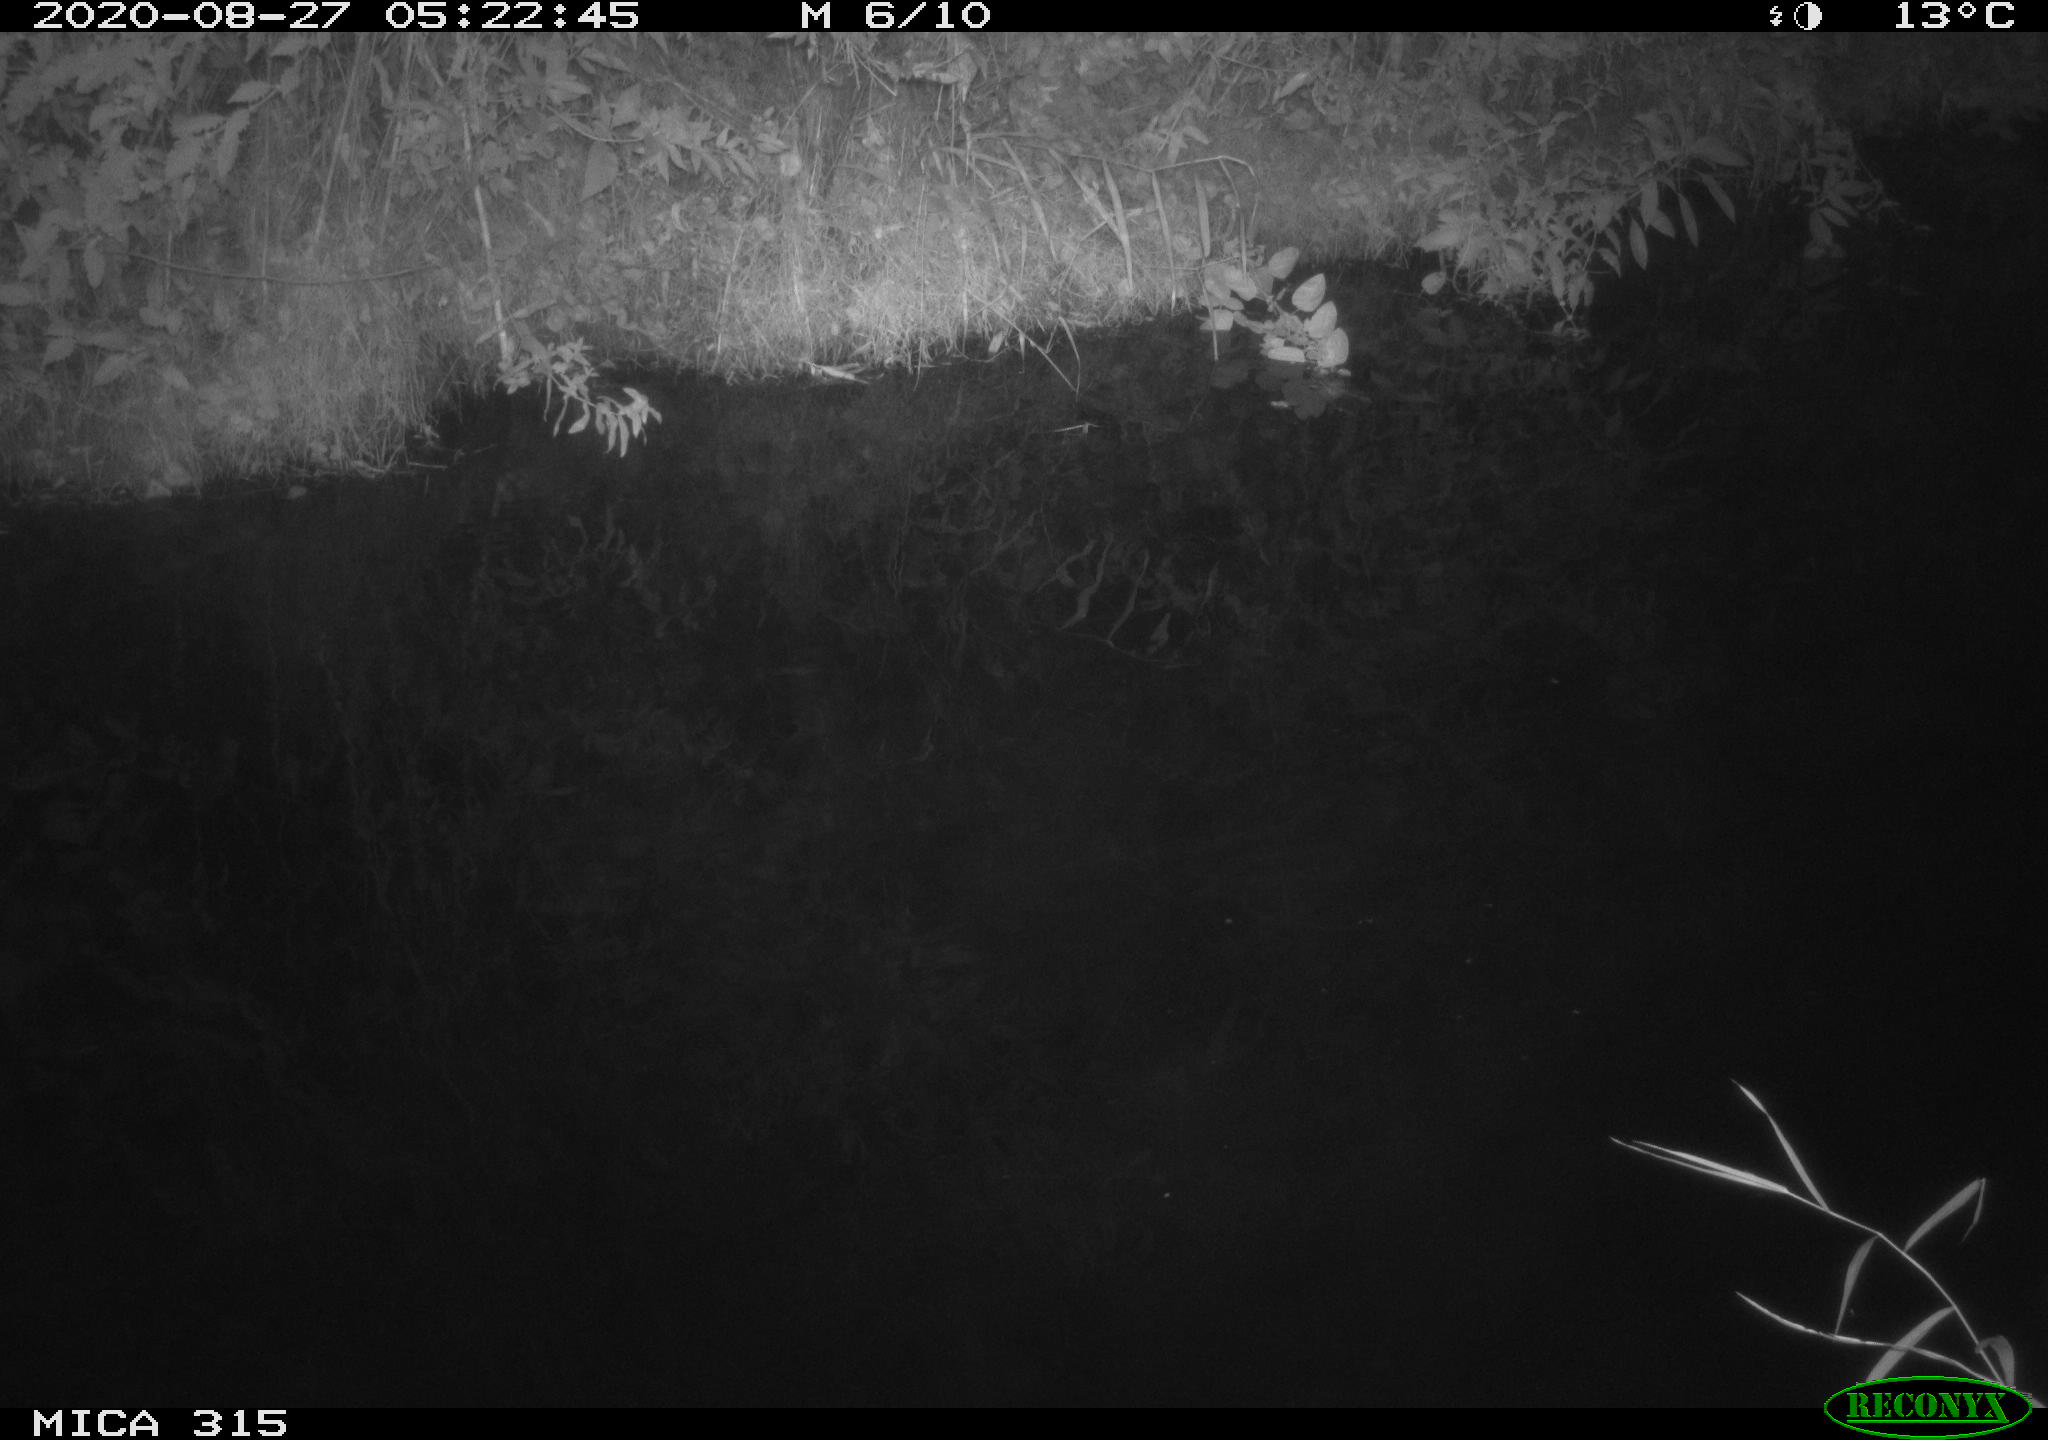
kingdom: Animalia
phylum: Chordata
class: Aves
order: Anseriformes
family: Anatidae
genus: Anas
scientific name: Anas platyrhynchos
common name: Mallard
